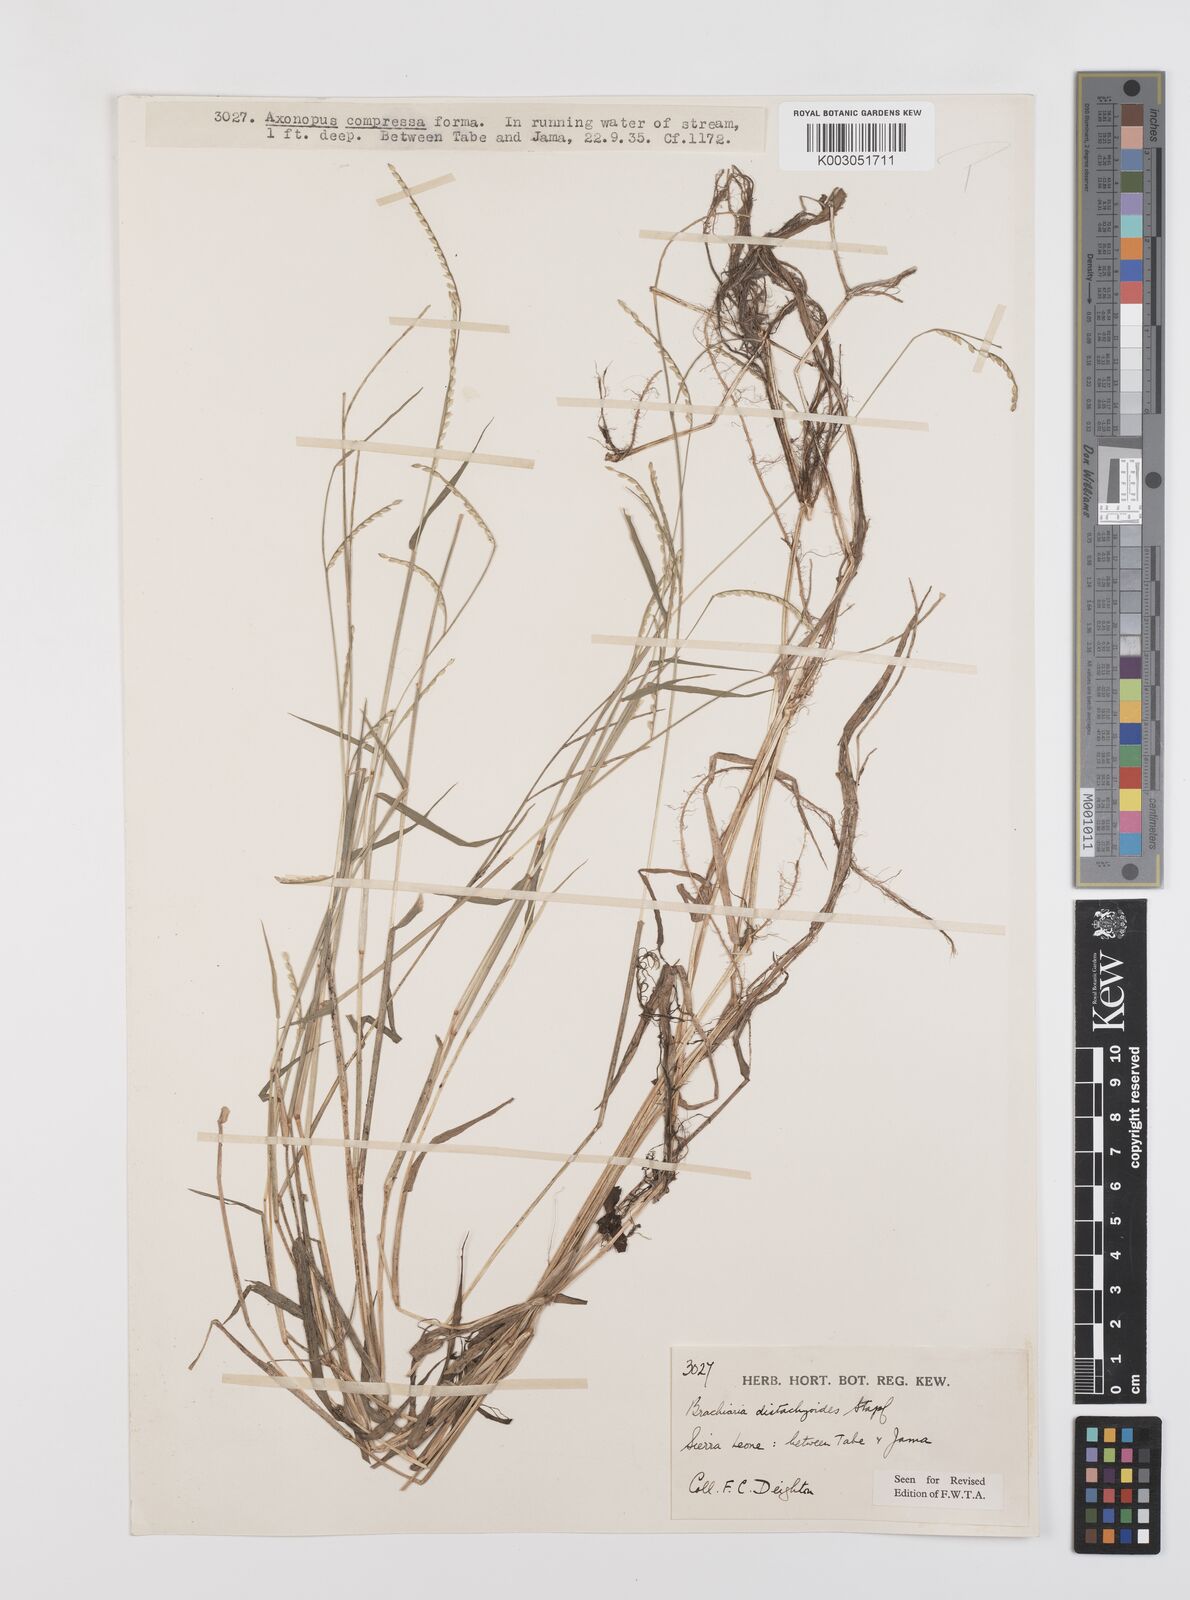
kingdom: Plantae
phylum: Tracheophyta
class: Liliopsida
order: Poales
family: Poaceae
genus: Urochloa
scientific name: Urochloa distachyoides
